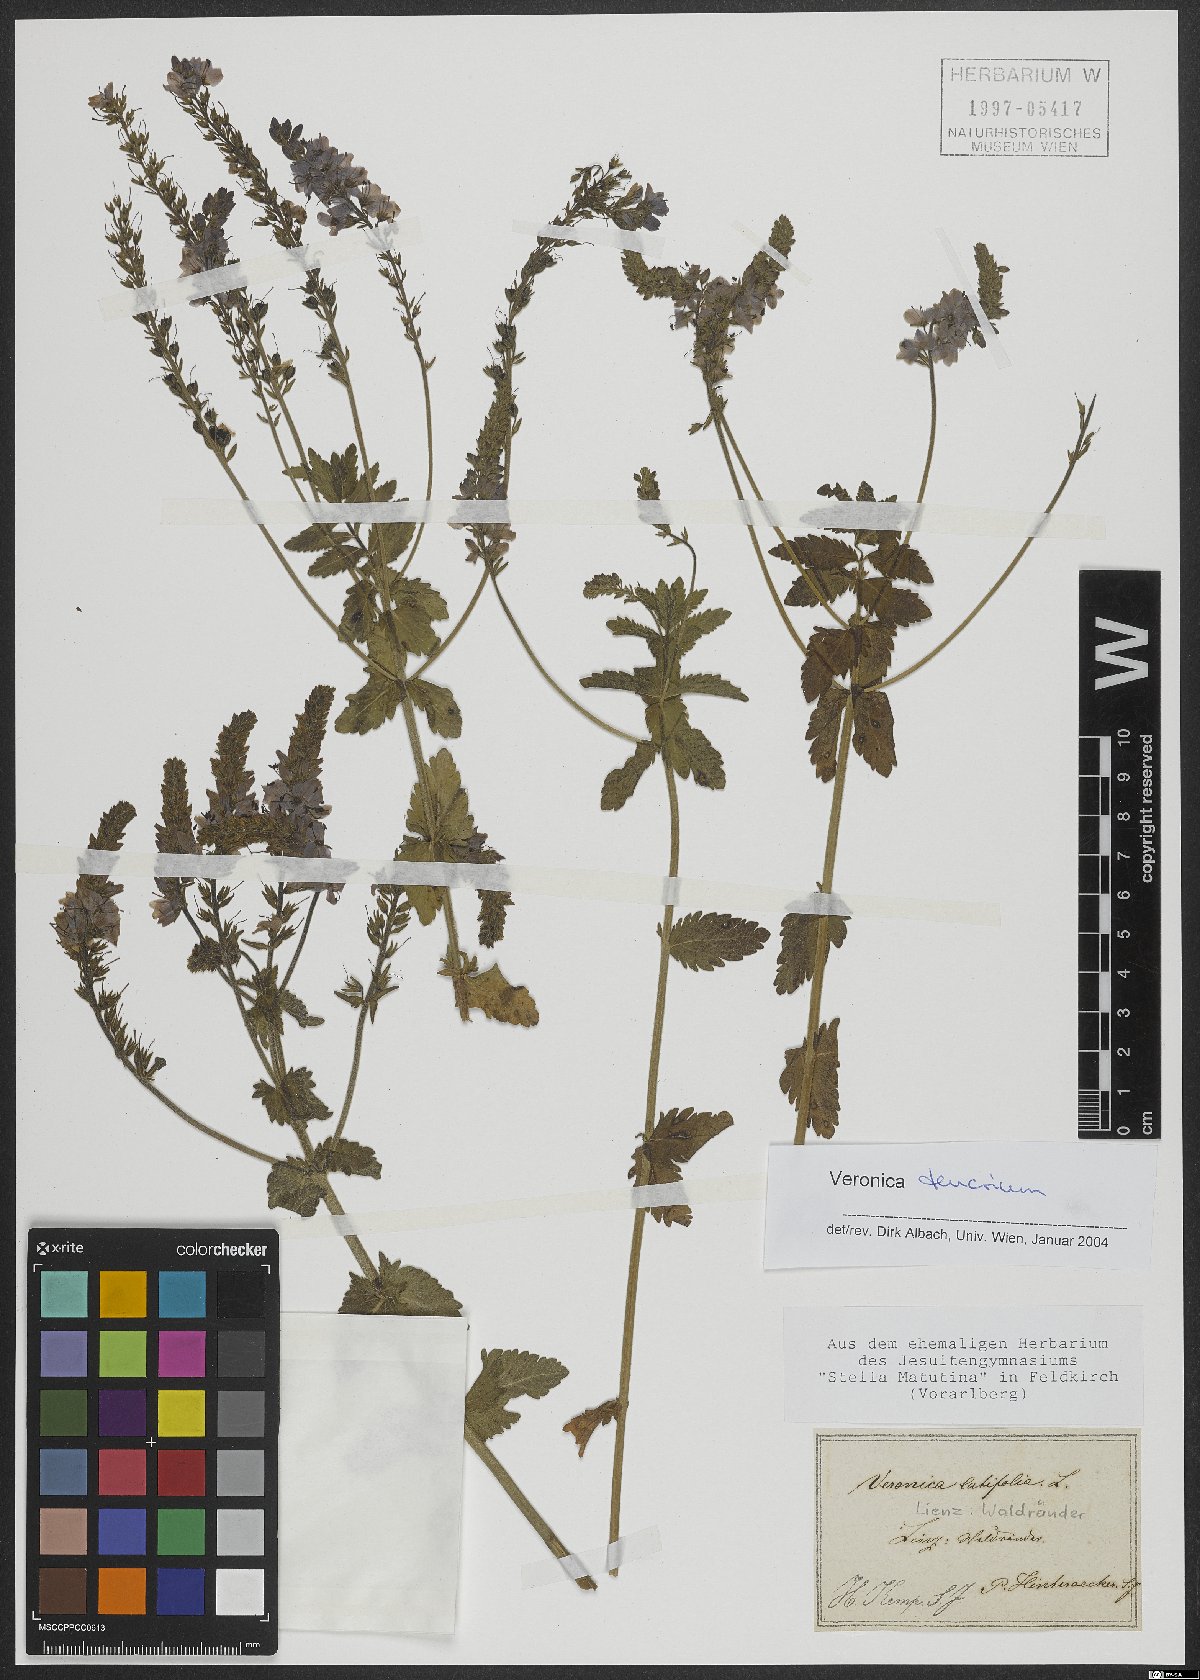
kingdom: Plantae
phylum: Tracheophyta
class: Magnoliopsida
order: Lamiales
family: Plantaginaceae
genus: Veronica
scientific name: Veronica teucrium
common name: Large speedwell
